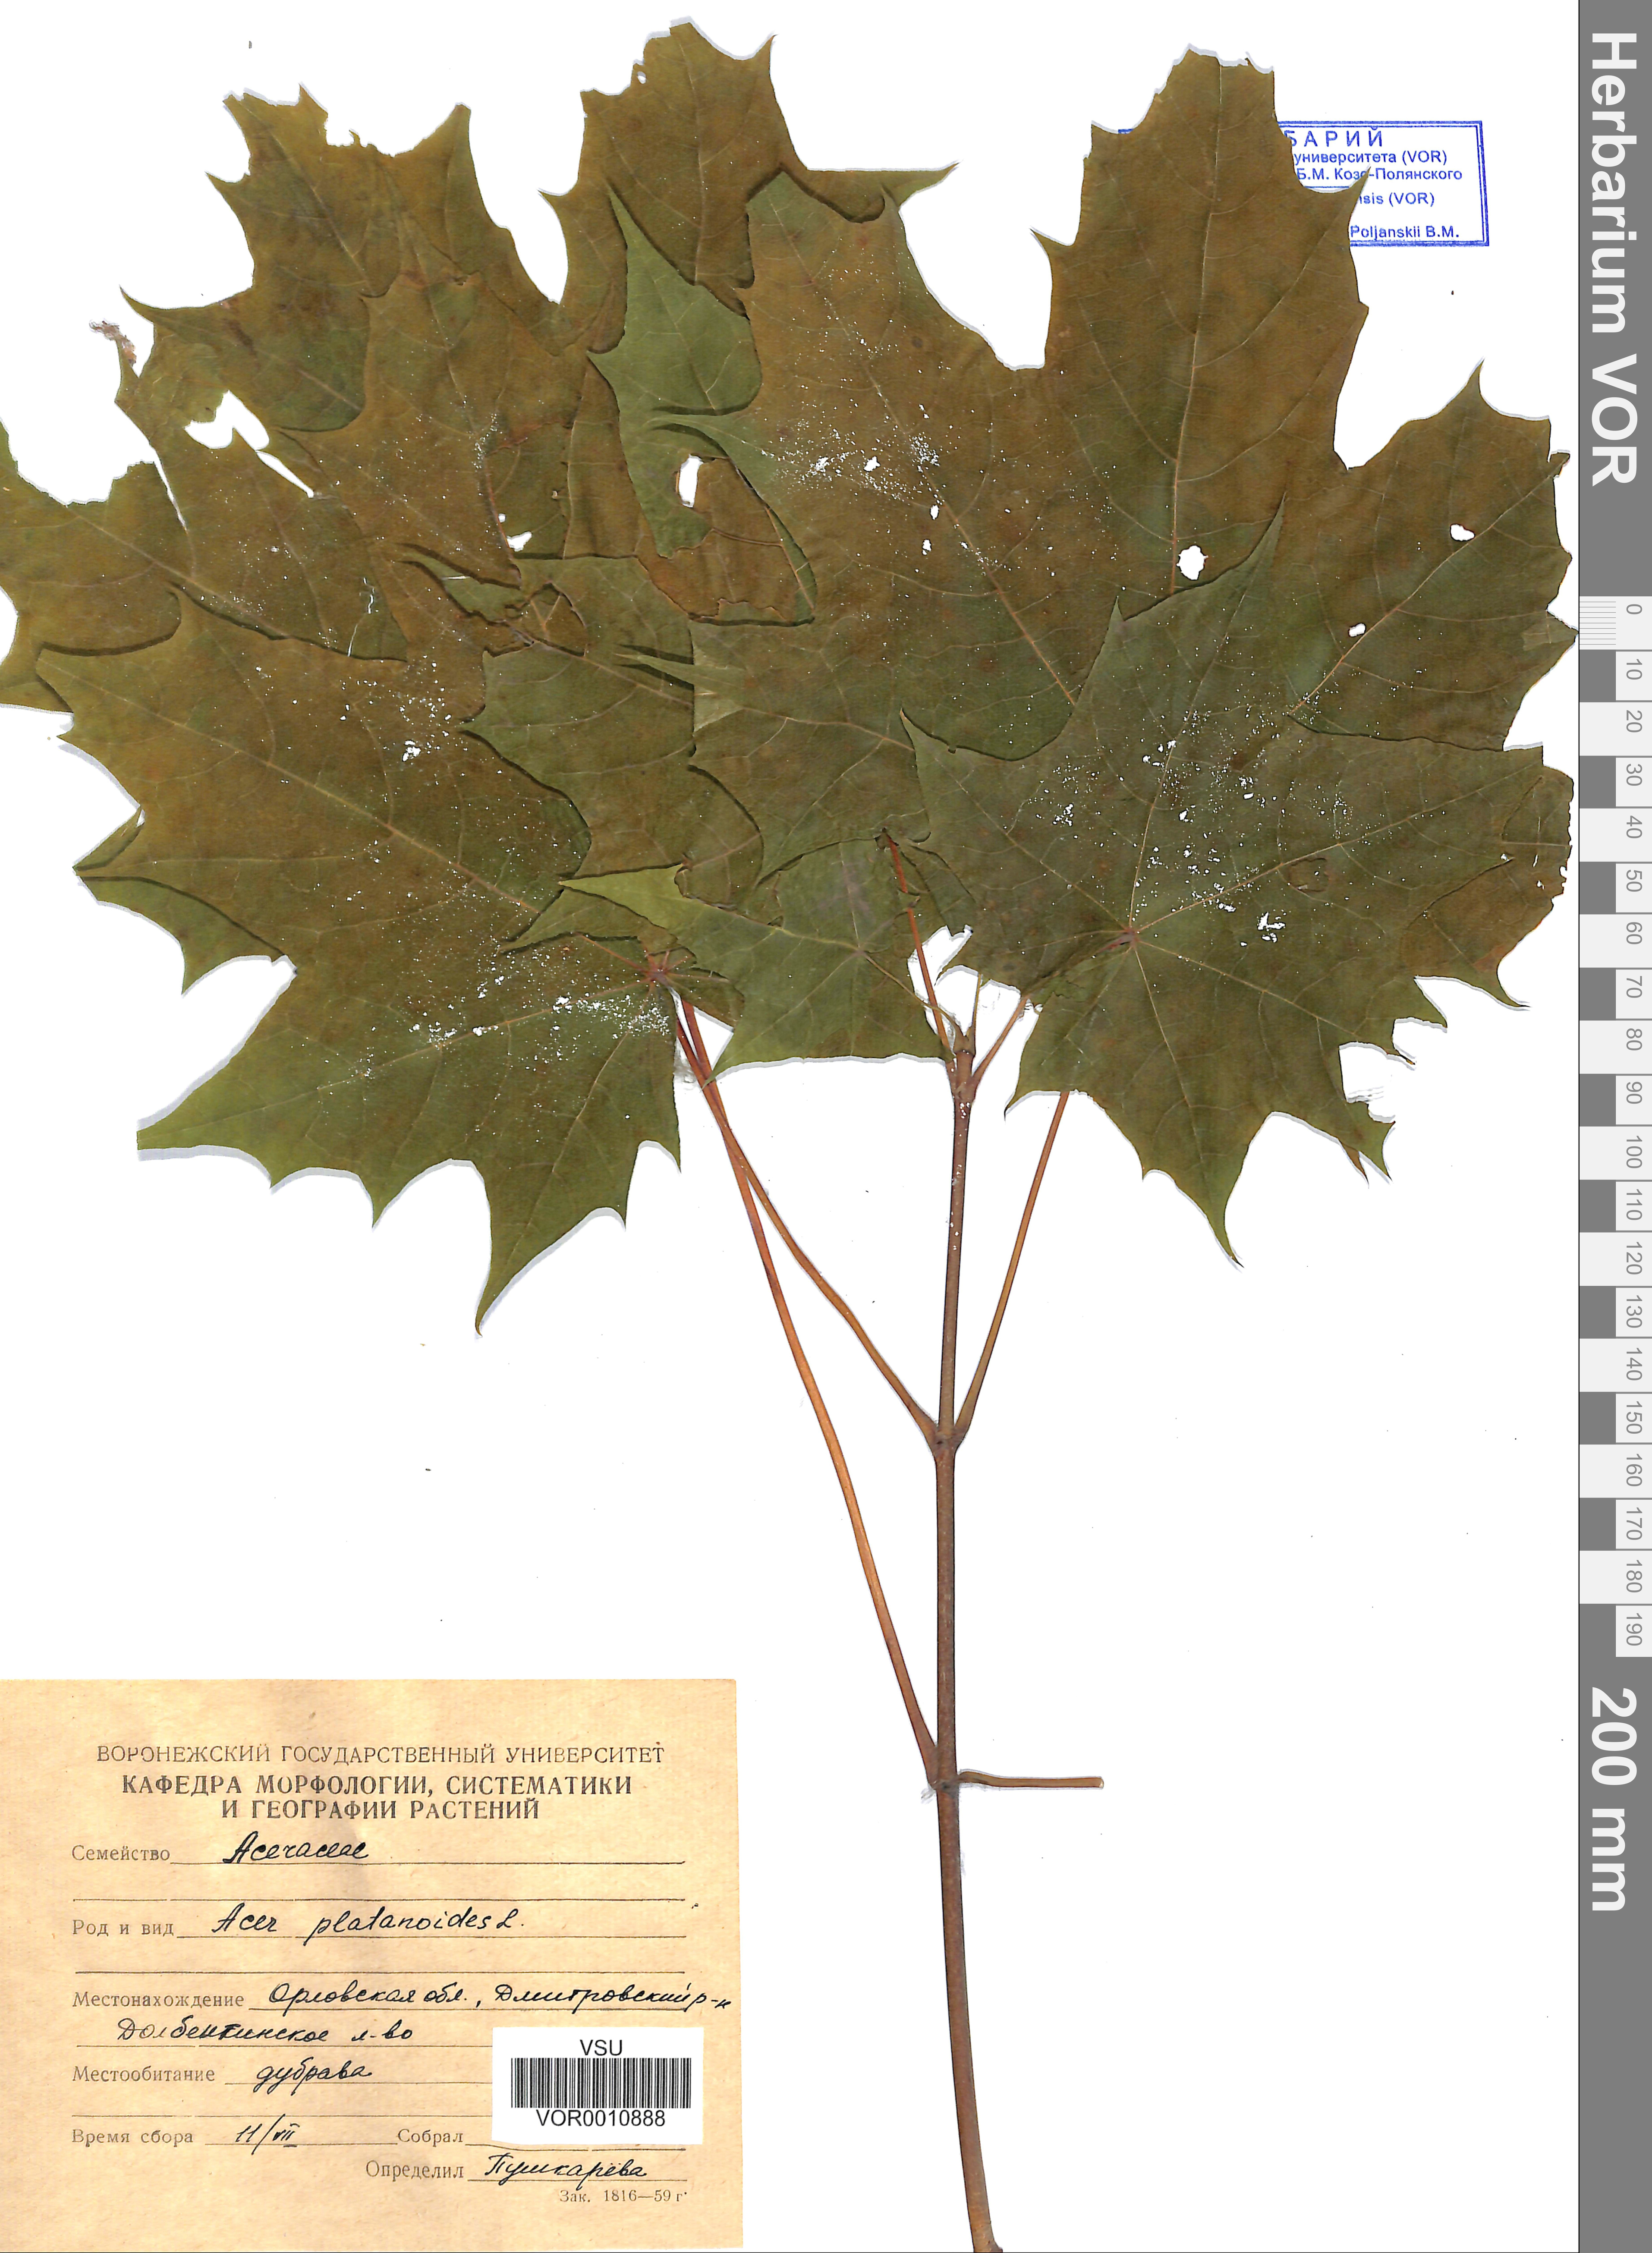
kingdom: Plantae
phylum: Tracheophyta
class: Magnoliopsida
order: Sapindales
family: Sapindaceae
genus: Acer
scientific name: Acer platanoides
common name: Norway maple
